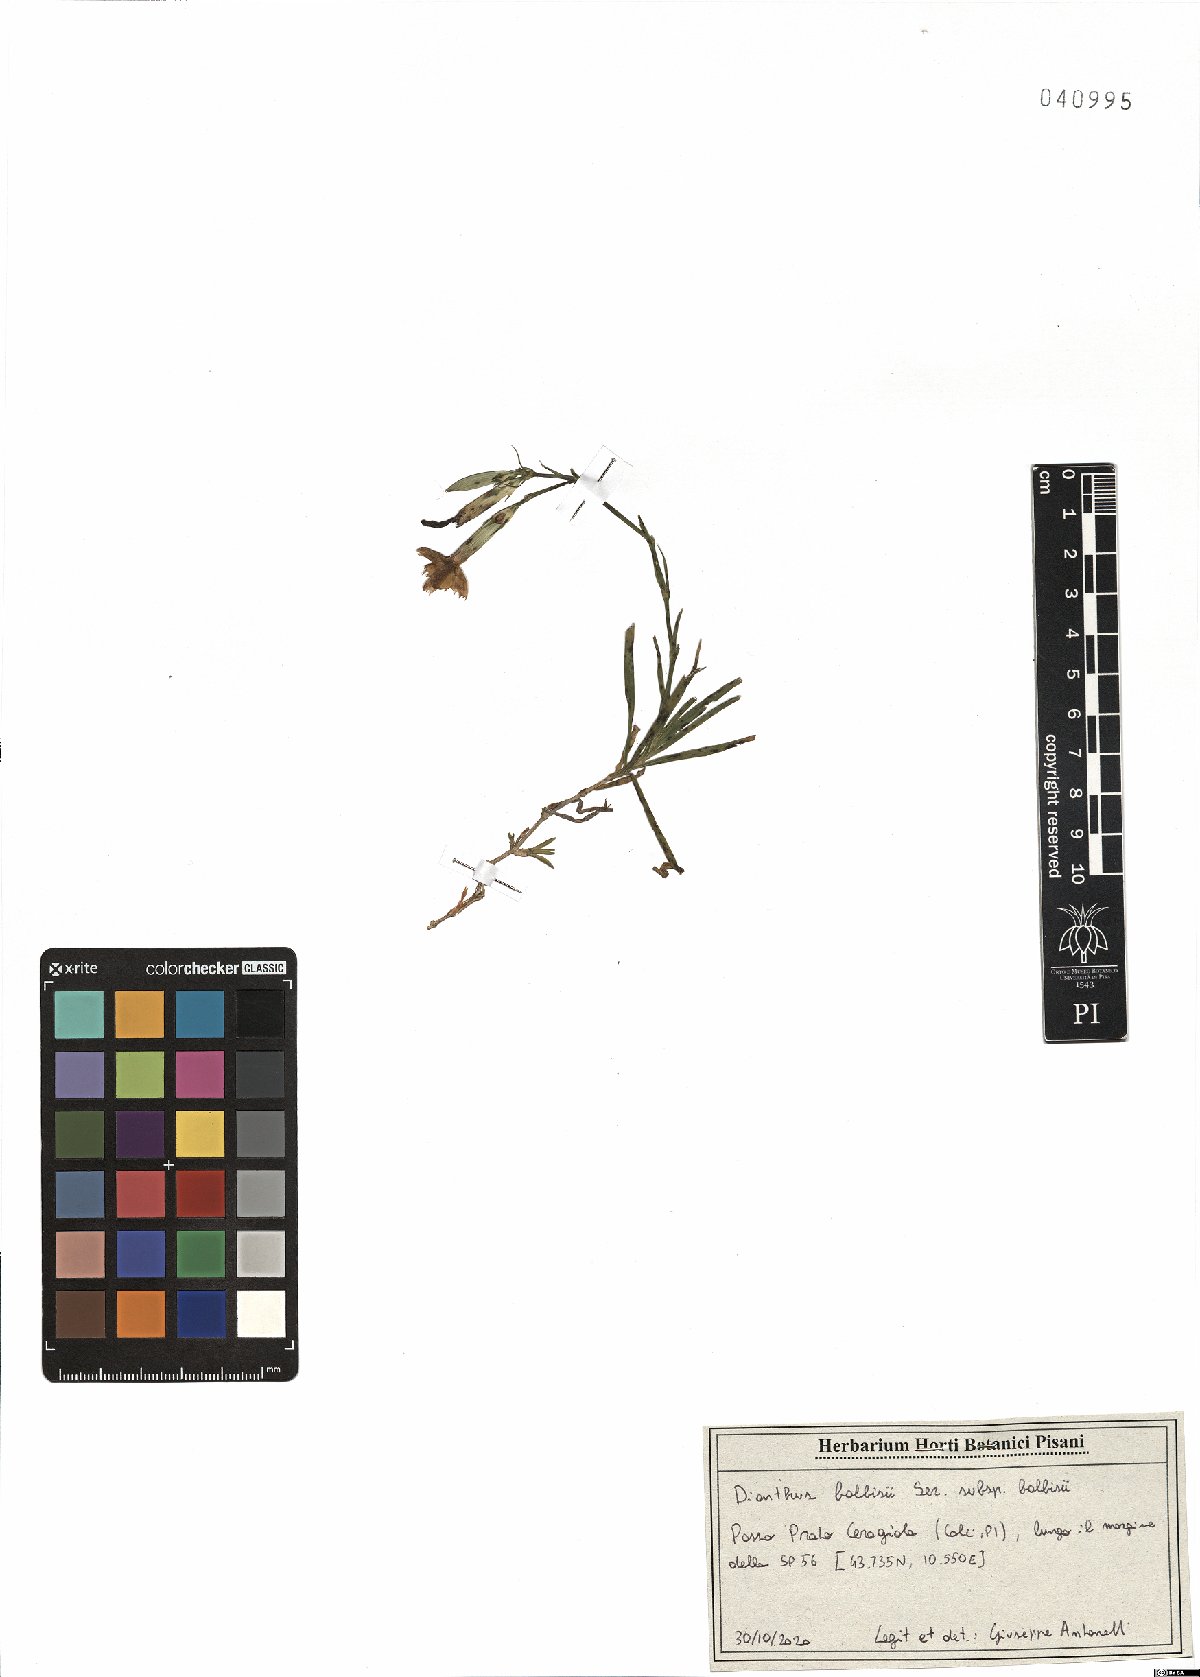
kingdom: Plantae
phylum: Tracheophyta
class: Magnoliopsida
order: Caryophyllales
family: Caryophyllaceae
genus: Dianthus
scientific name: Dianthus balbisii
